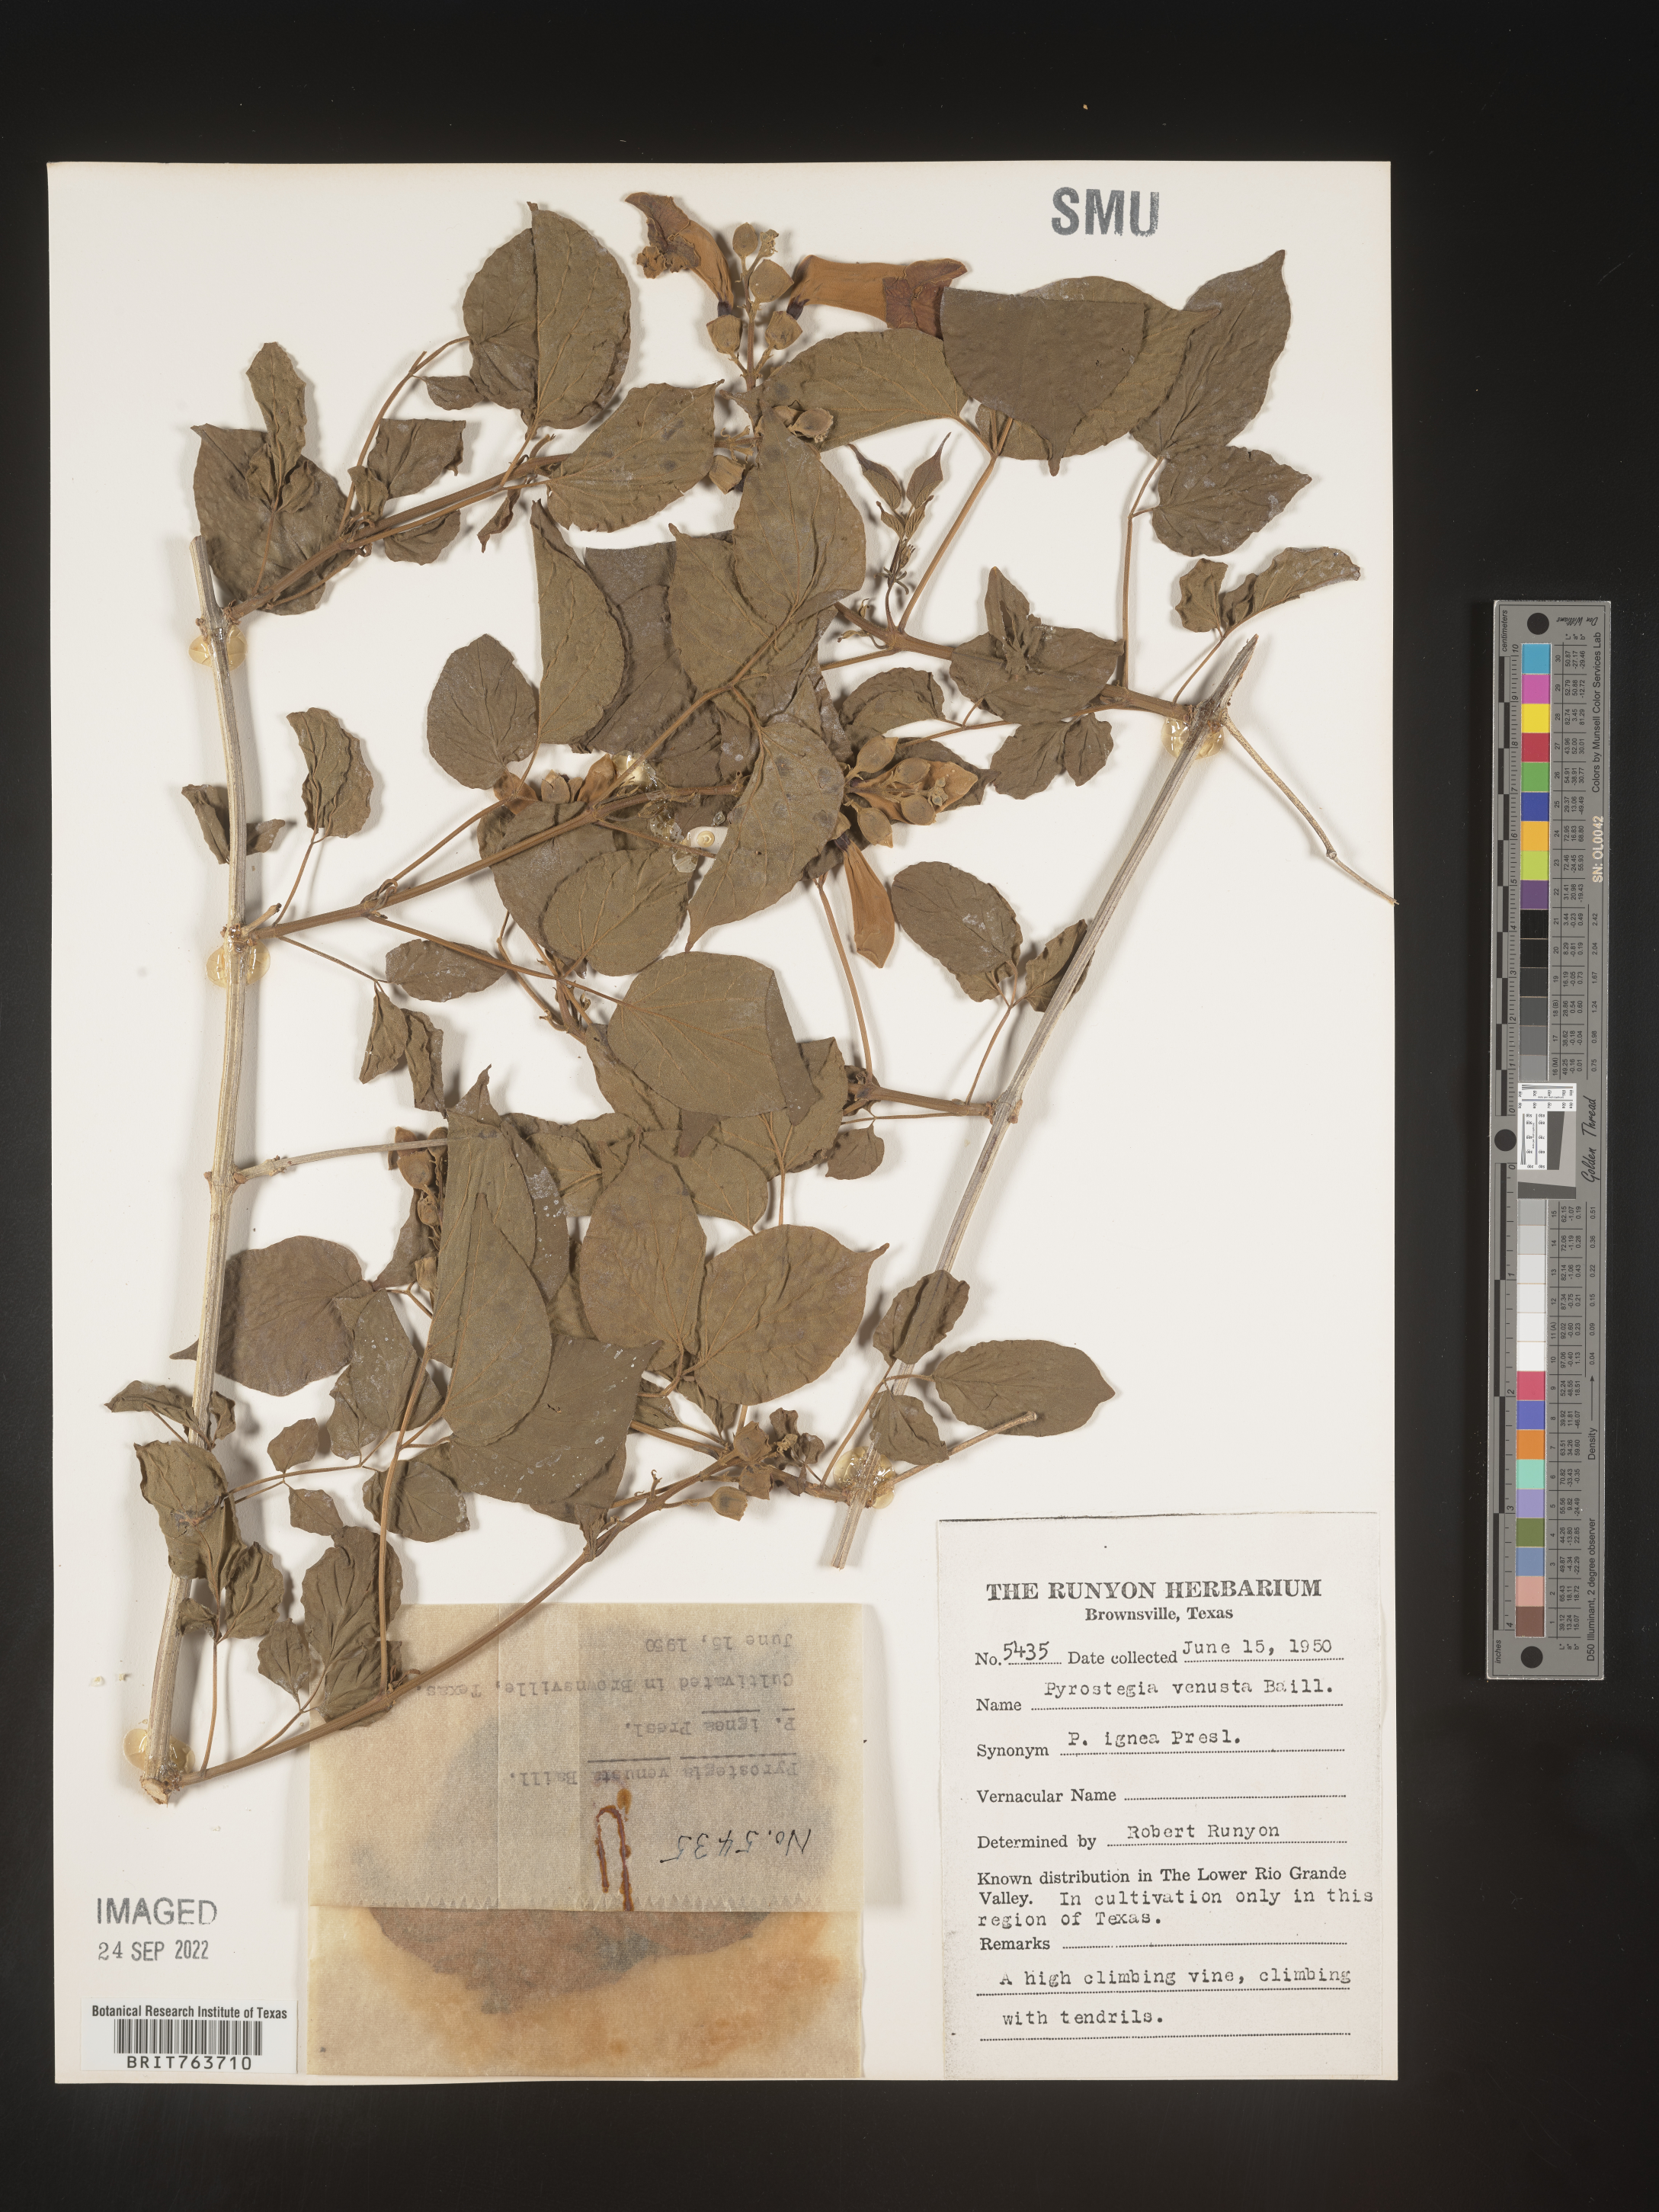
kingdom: Plantae
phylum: Tracheophyta
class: Magnoliopsida
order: Lamiales
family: Bignoniaceae
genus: Pyrostegia
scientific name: Pyrostegia
